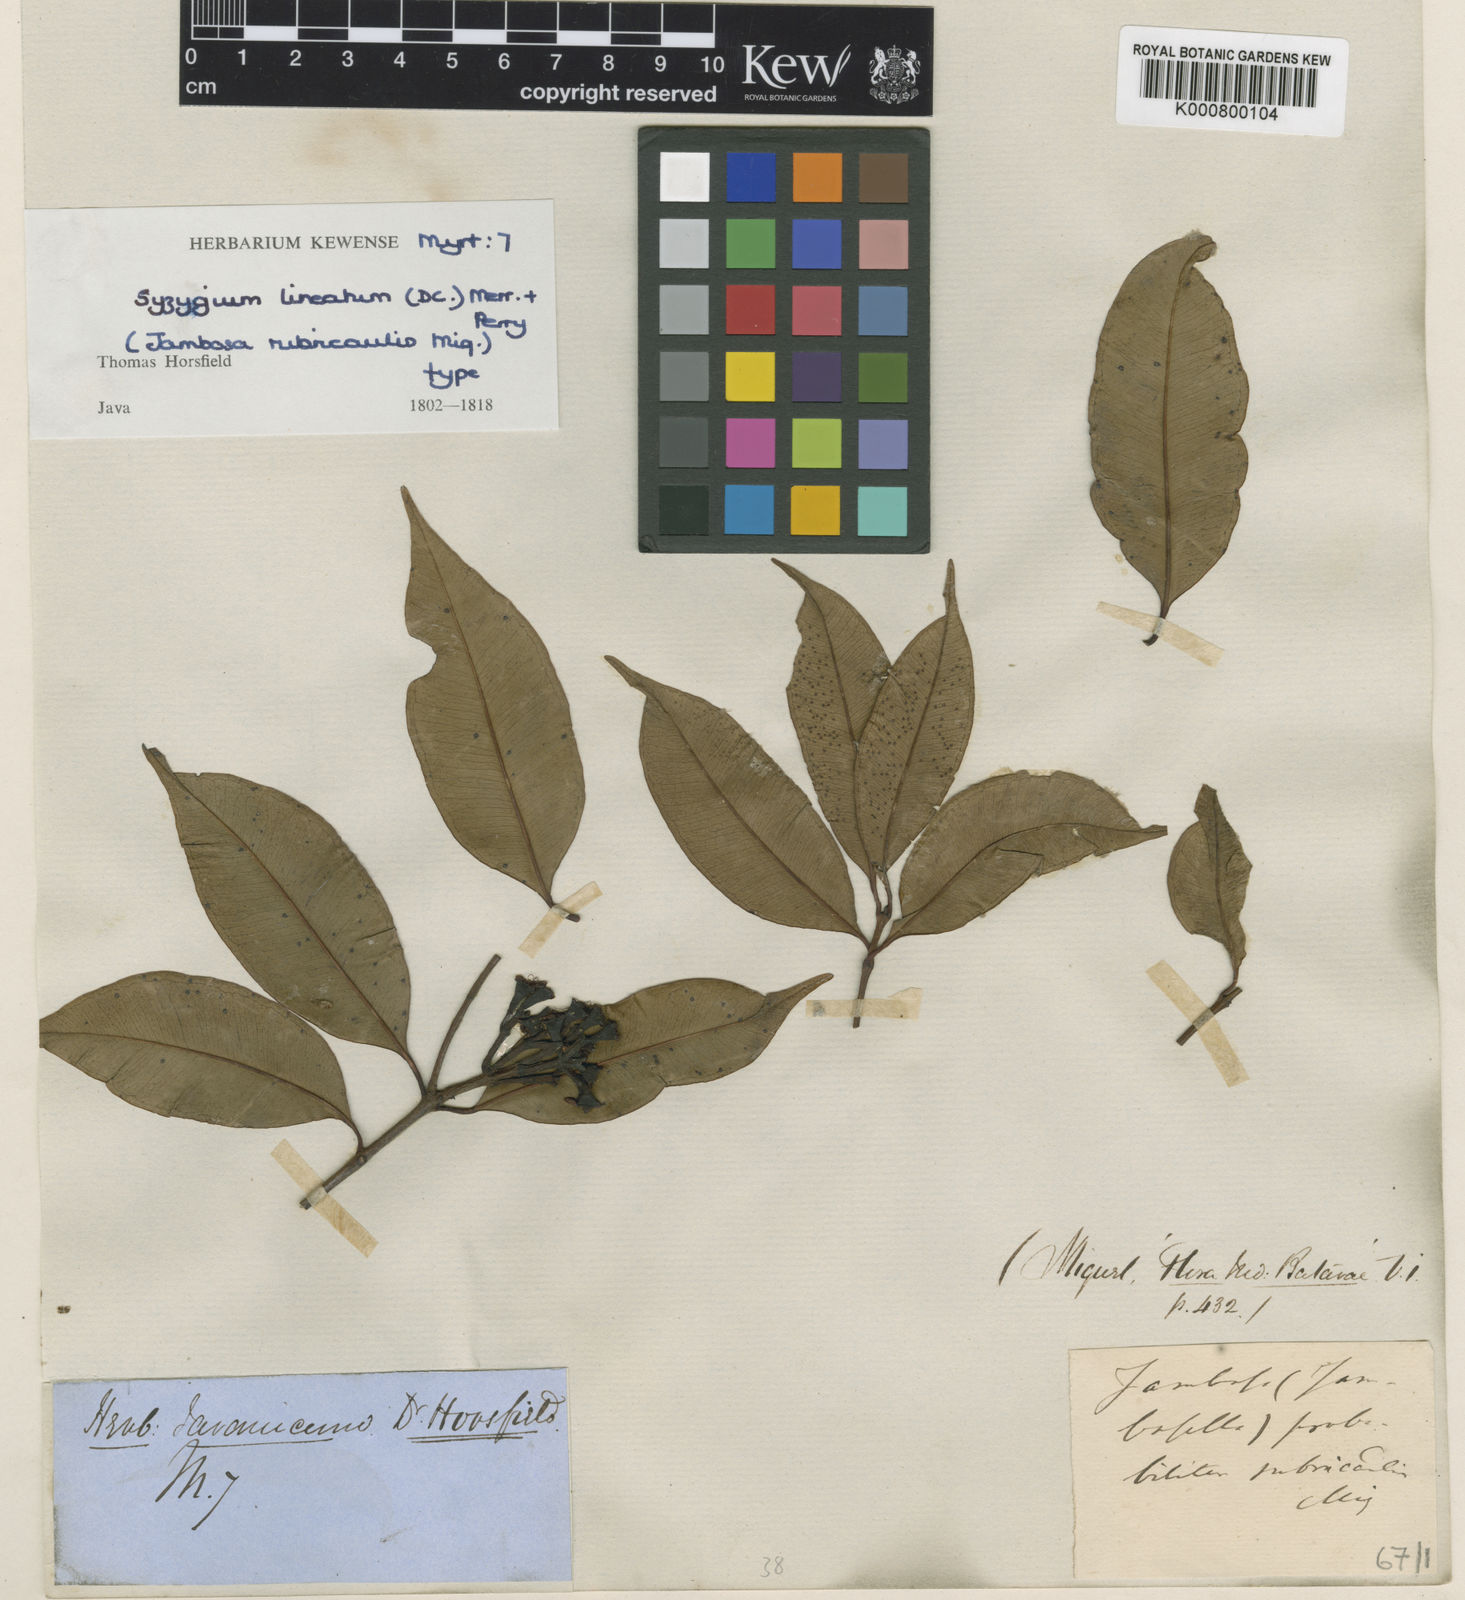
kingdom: Plantae
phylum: Tracheophyta
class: Magnoliopsida
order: Myrtales
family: Myrtaceae
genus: Syzygium
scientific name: Syzygium lineatum
